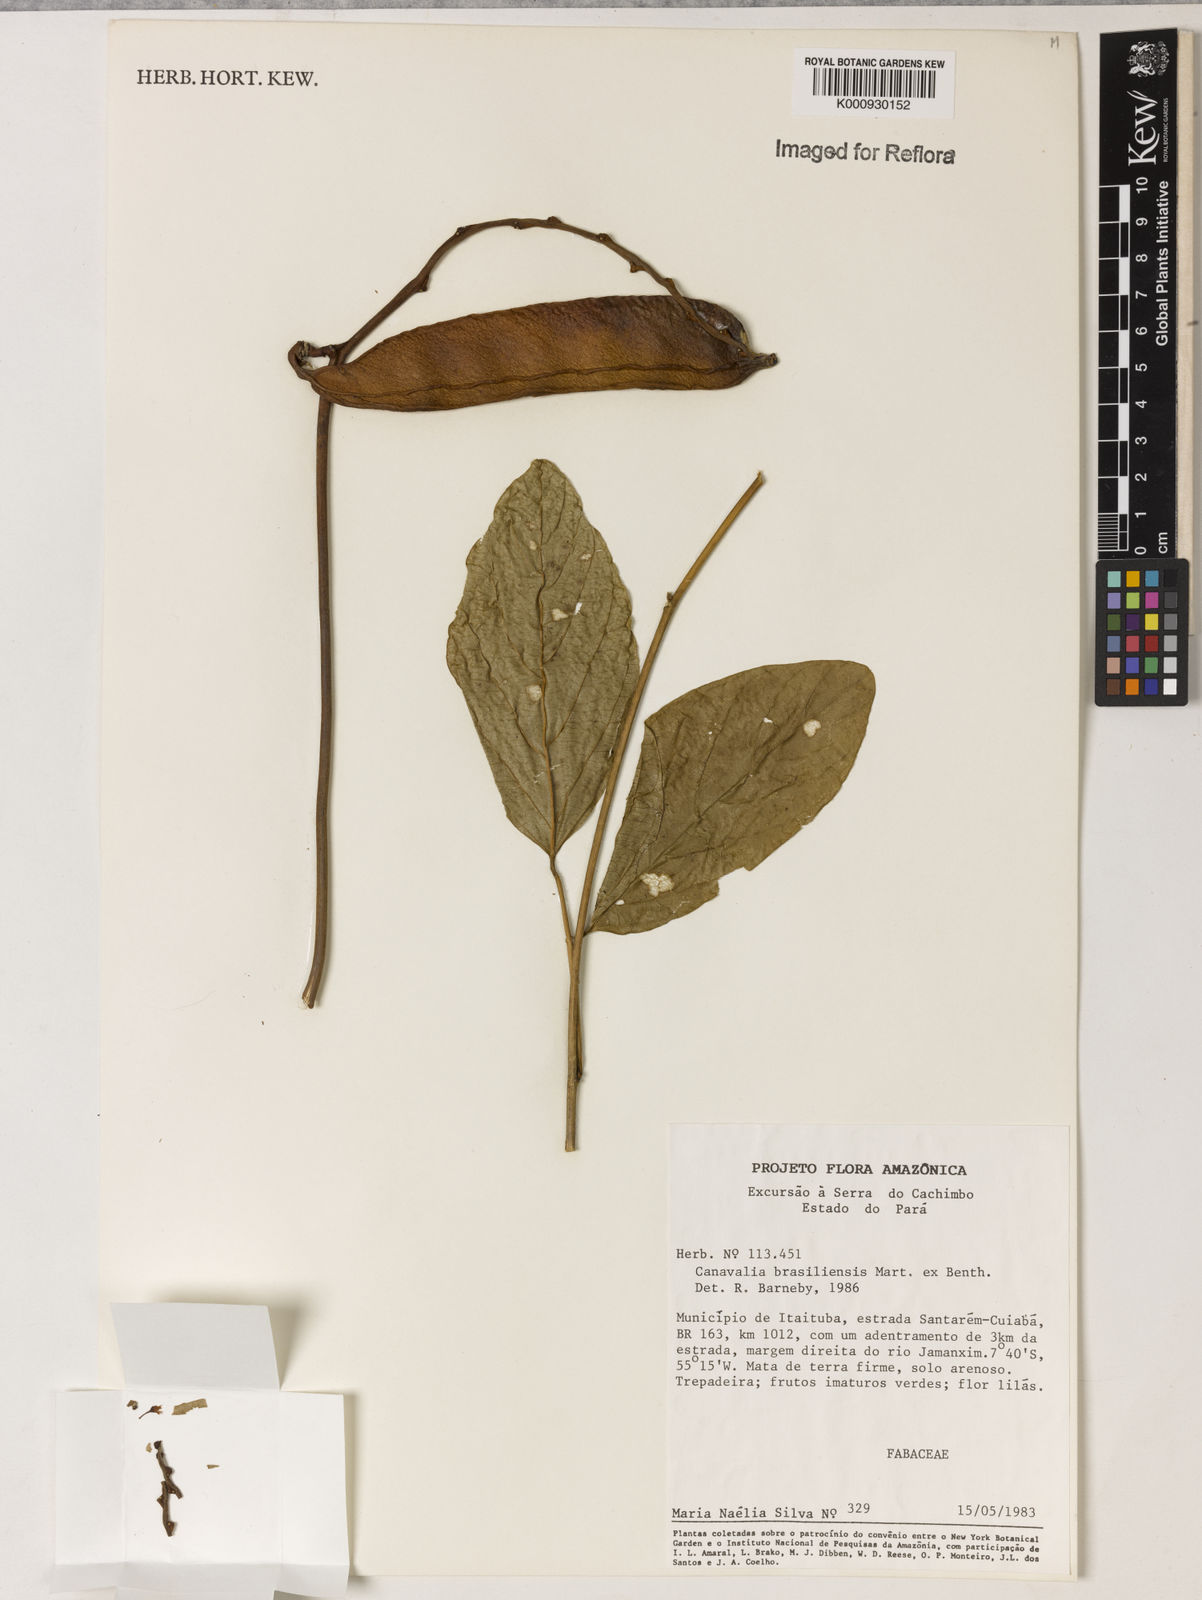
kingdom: Plantae
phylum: Tracheophyta
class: Magnoliopsida
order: Fabales
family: Fabaceae
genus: Canavalia
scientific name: Canavalia brasiliensis
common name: Barbicou-bean
